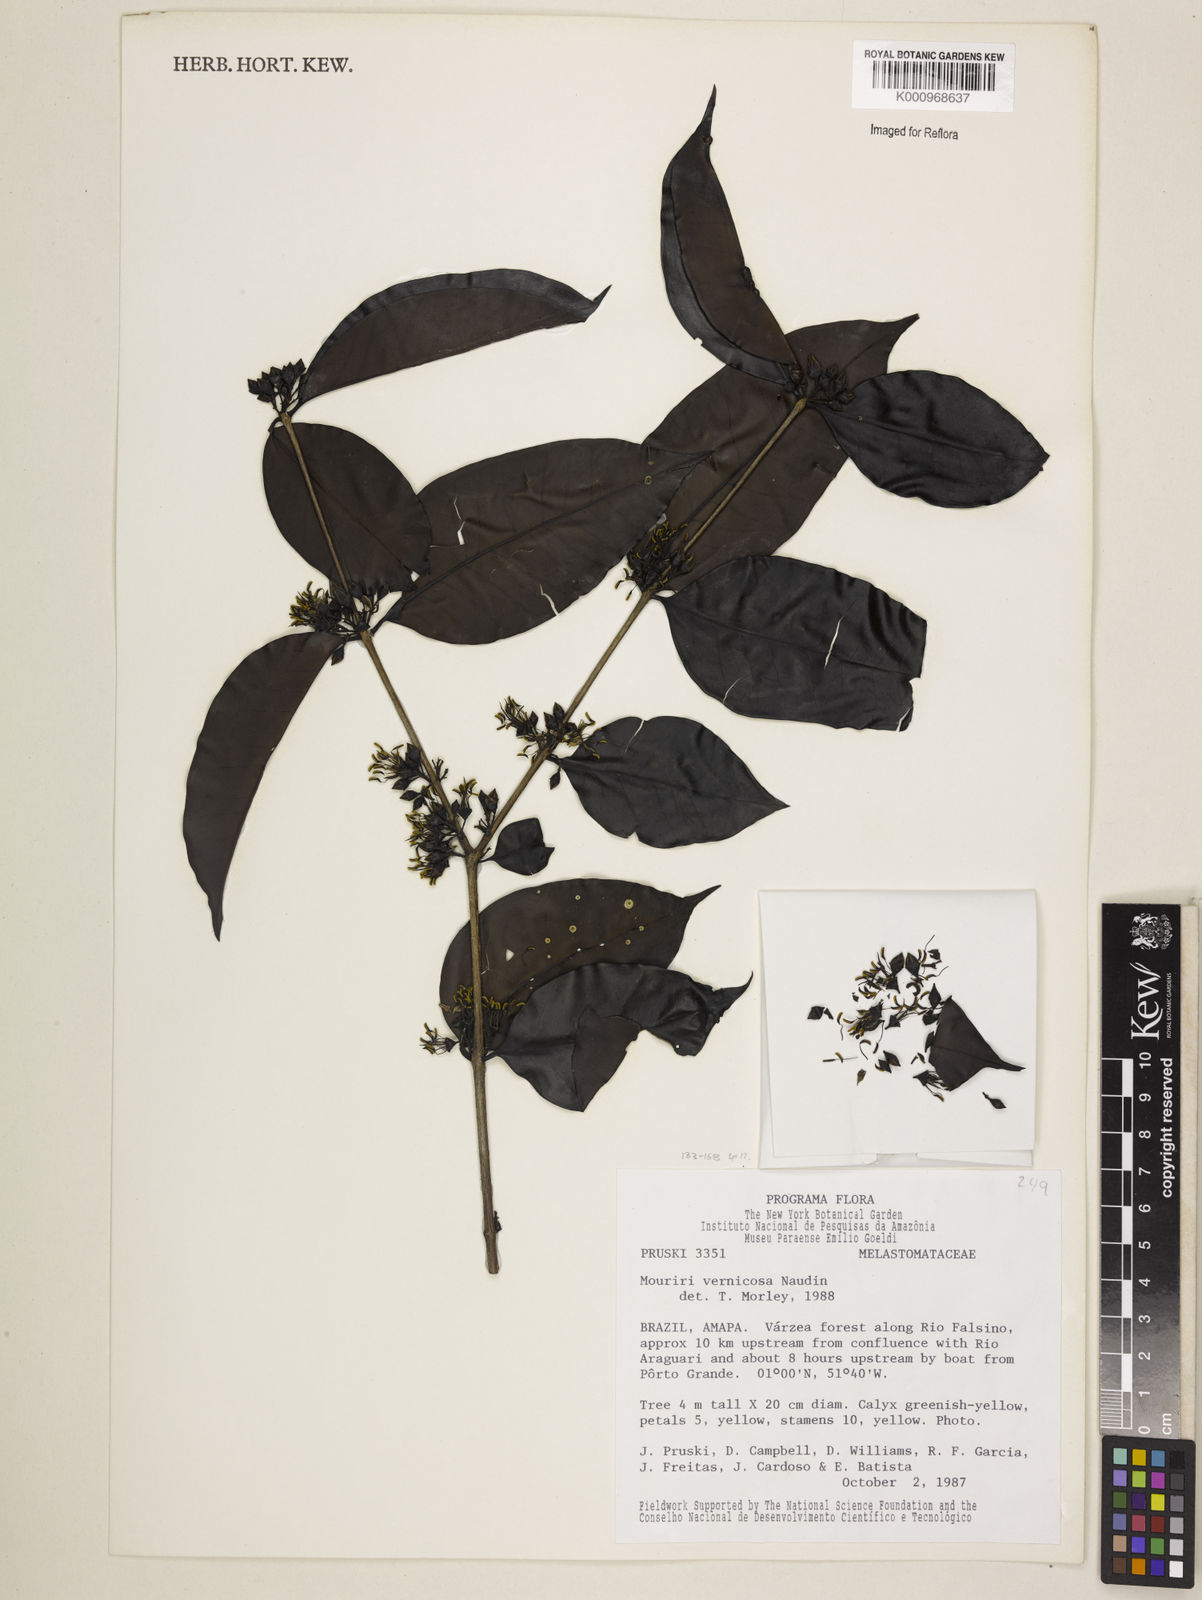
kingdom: Plantae
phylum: Tracheophyta
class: Magnoliopsida
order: Myrtales
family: Melastomataceae
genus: Mouriri
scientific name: Mouriri vernicosa
